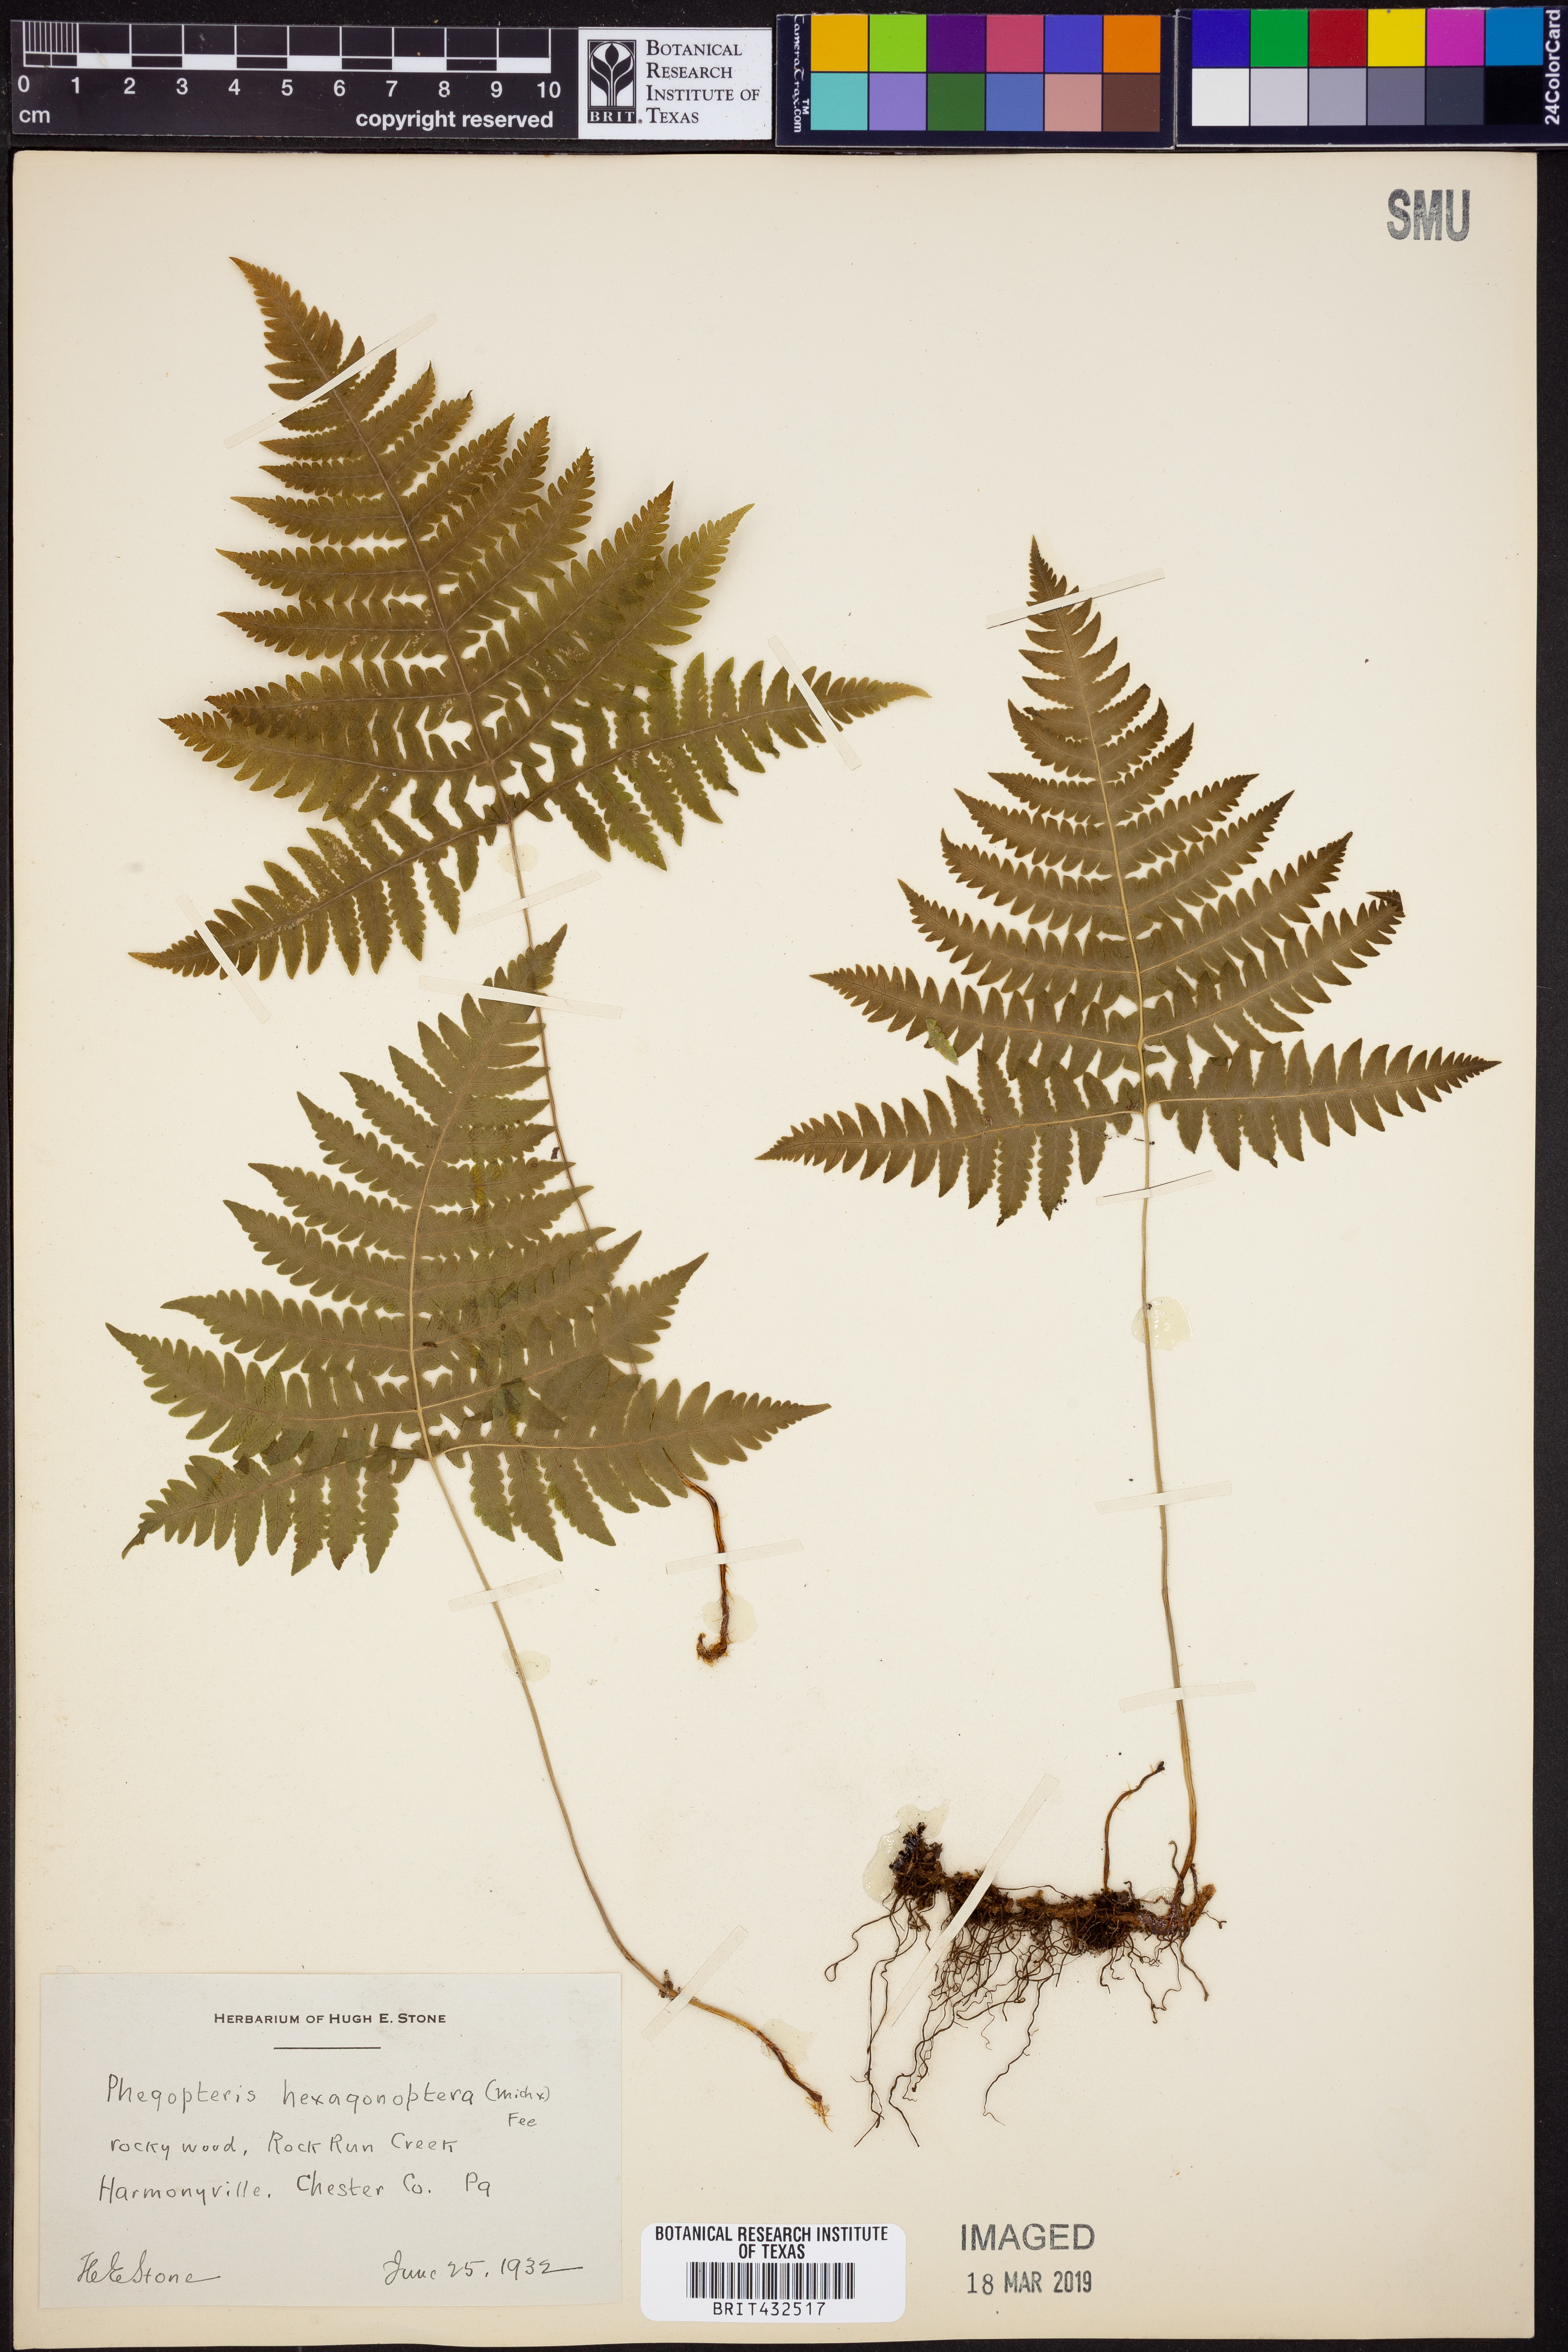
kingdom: Plantae
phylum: Tracheophyta
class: Polypodiopsida
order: Polypodiales
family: Thelypteridaceae
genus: Phegopteris
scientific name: Phegopteris hexagonoptera
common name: Broad beech fern
